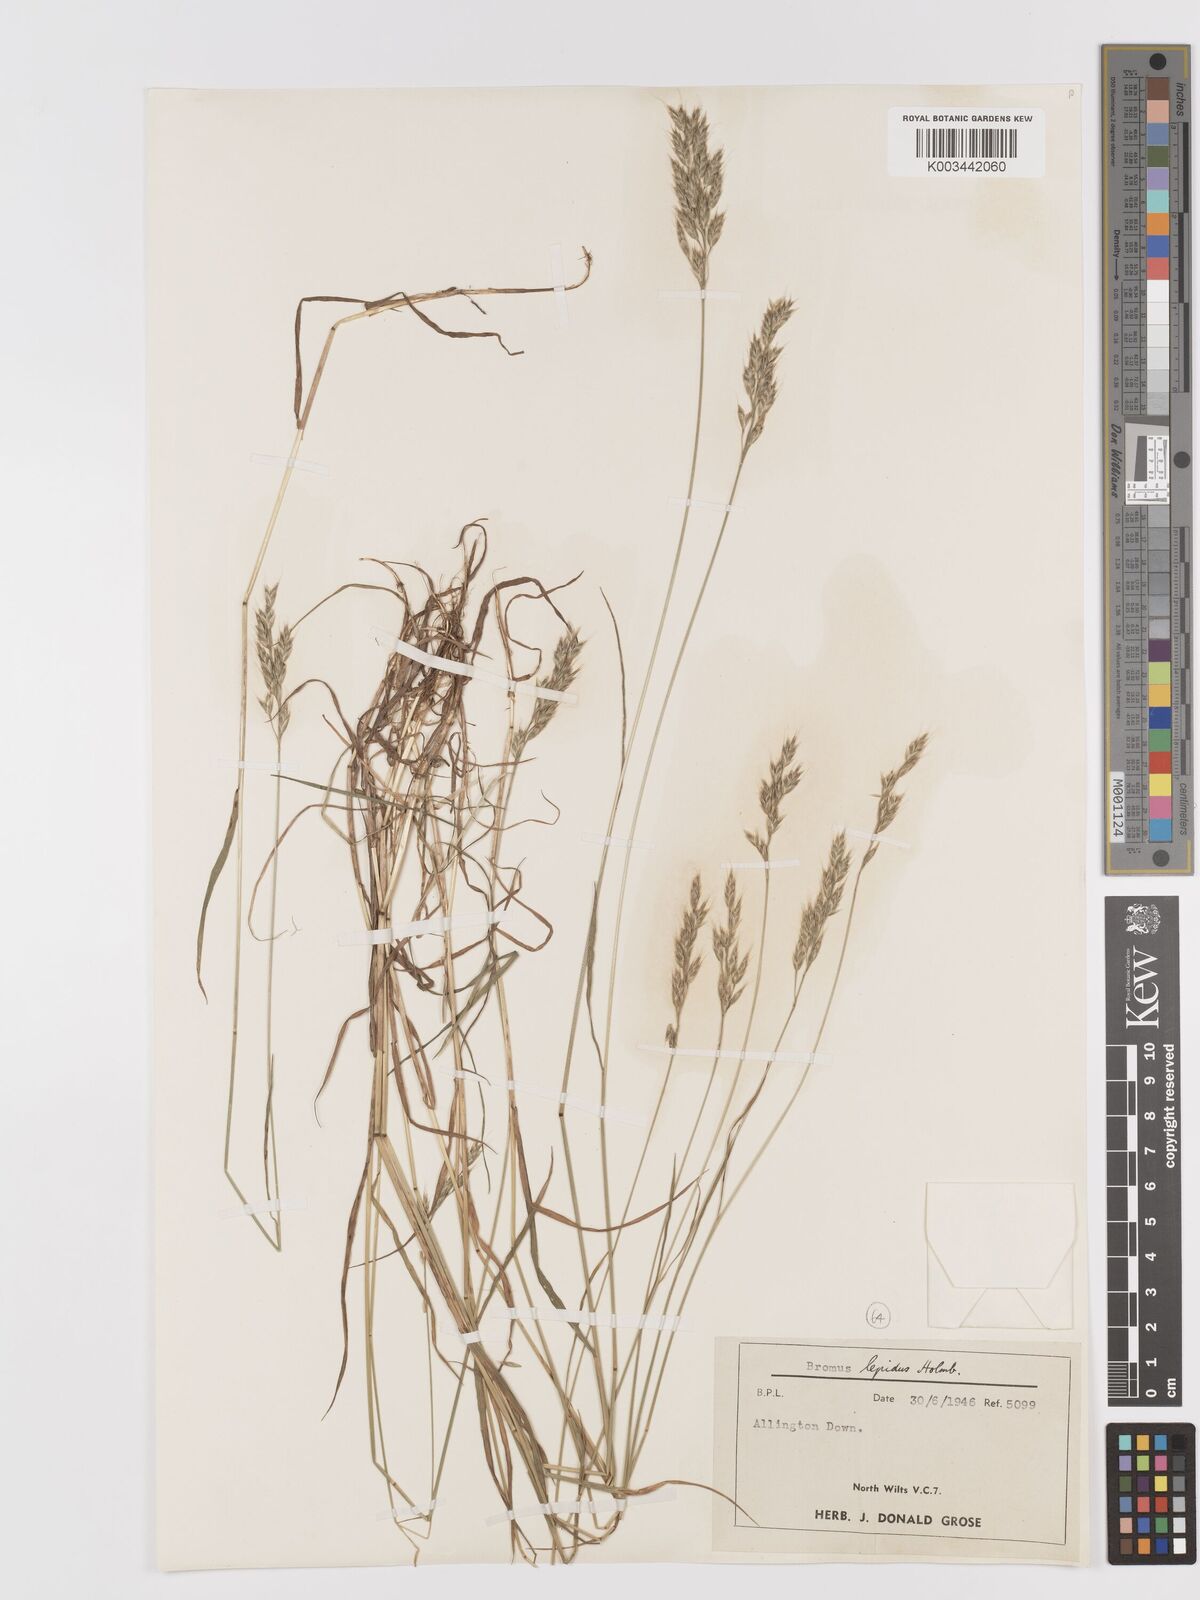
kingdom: Plantae
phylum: Tracheophyta
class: Liliopsida
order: Poales
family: Poaceae
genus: Bromus
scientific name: Bromus lepidus
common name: Slender soft-brome
